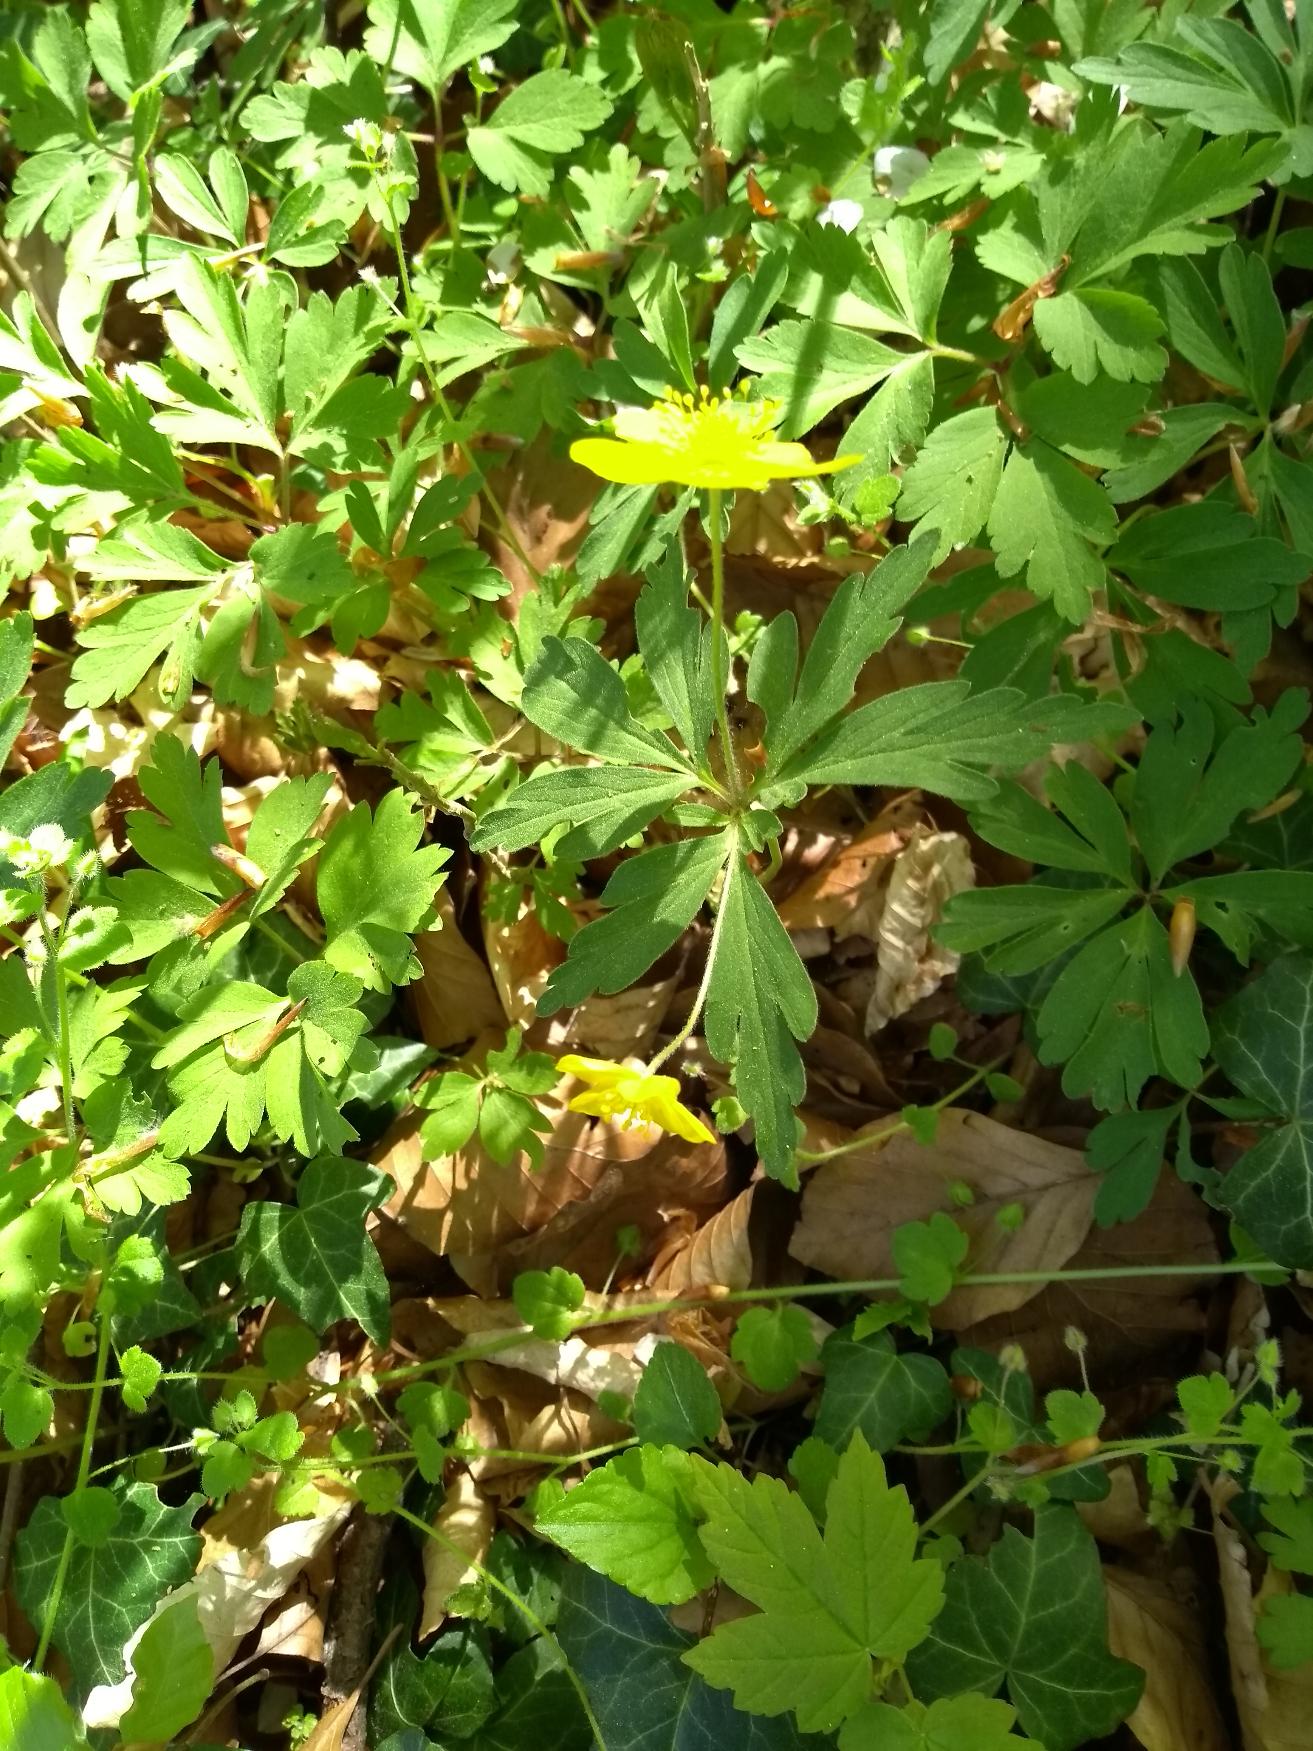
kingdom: Plantae
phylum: Tracheophyta
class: Magnoliopsida
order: Ranunculales
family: Ranunculaceae
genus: Anemone
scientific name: Anemone ranunculoides
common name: Gul anemone
